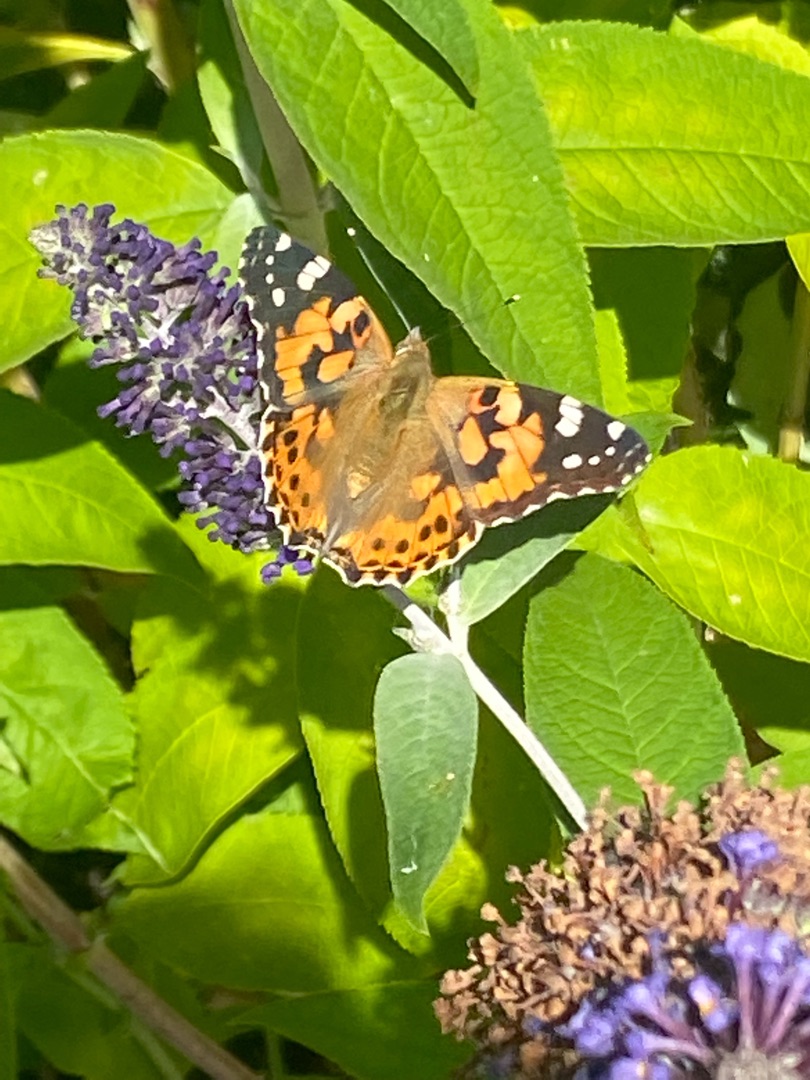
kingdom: Animalia
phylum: Arthropoda
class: Insecta
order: Lepidoptera
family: Nymphalidae
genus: Vanessa
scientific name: Vanessa cardui
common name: Tidselsommerfugl
